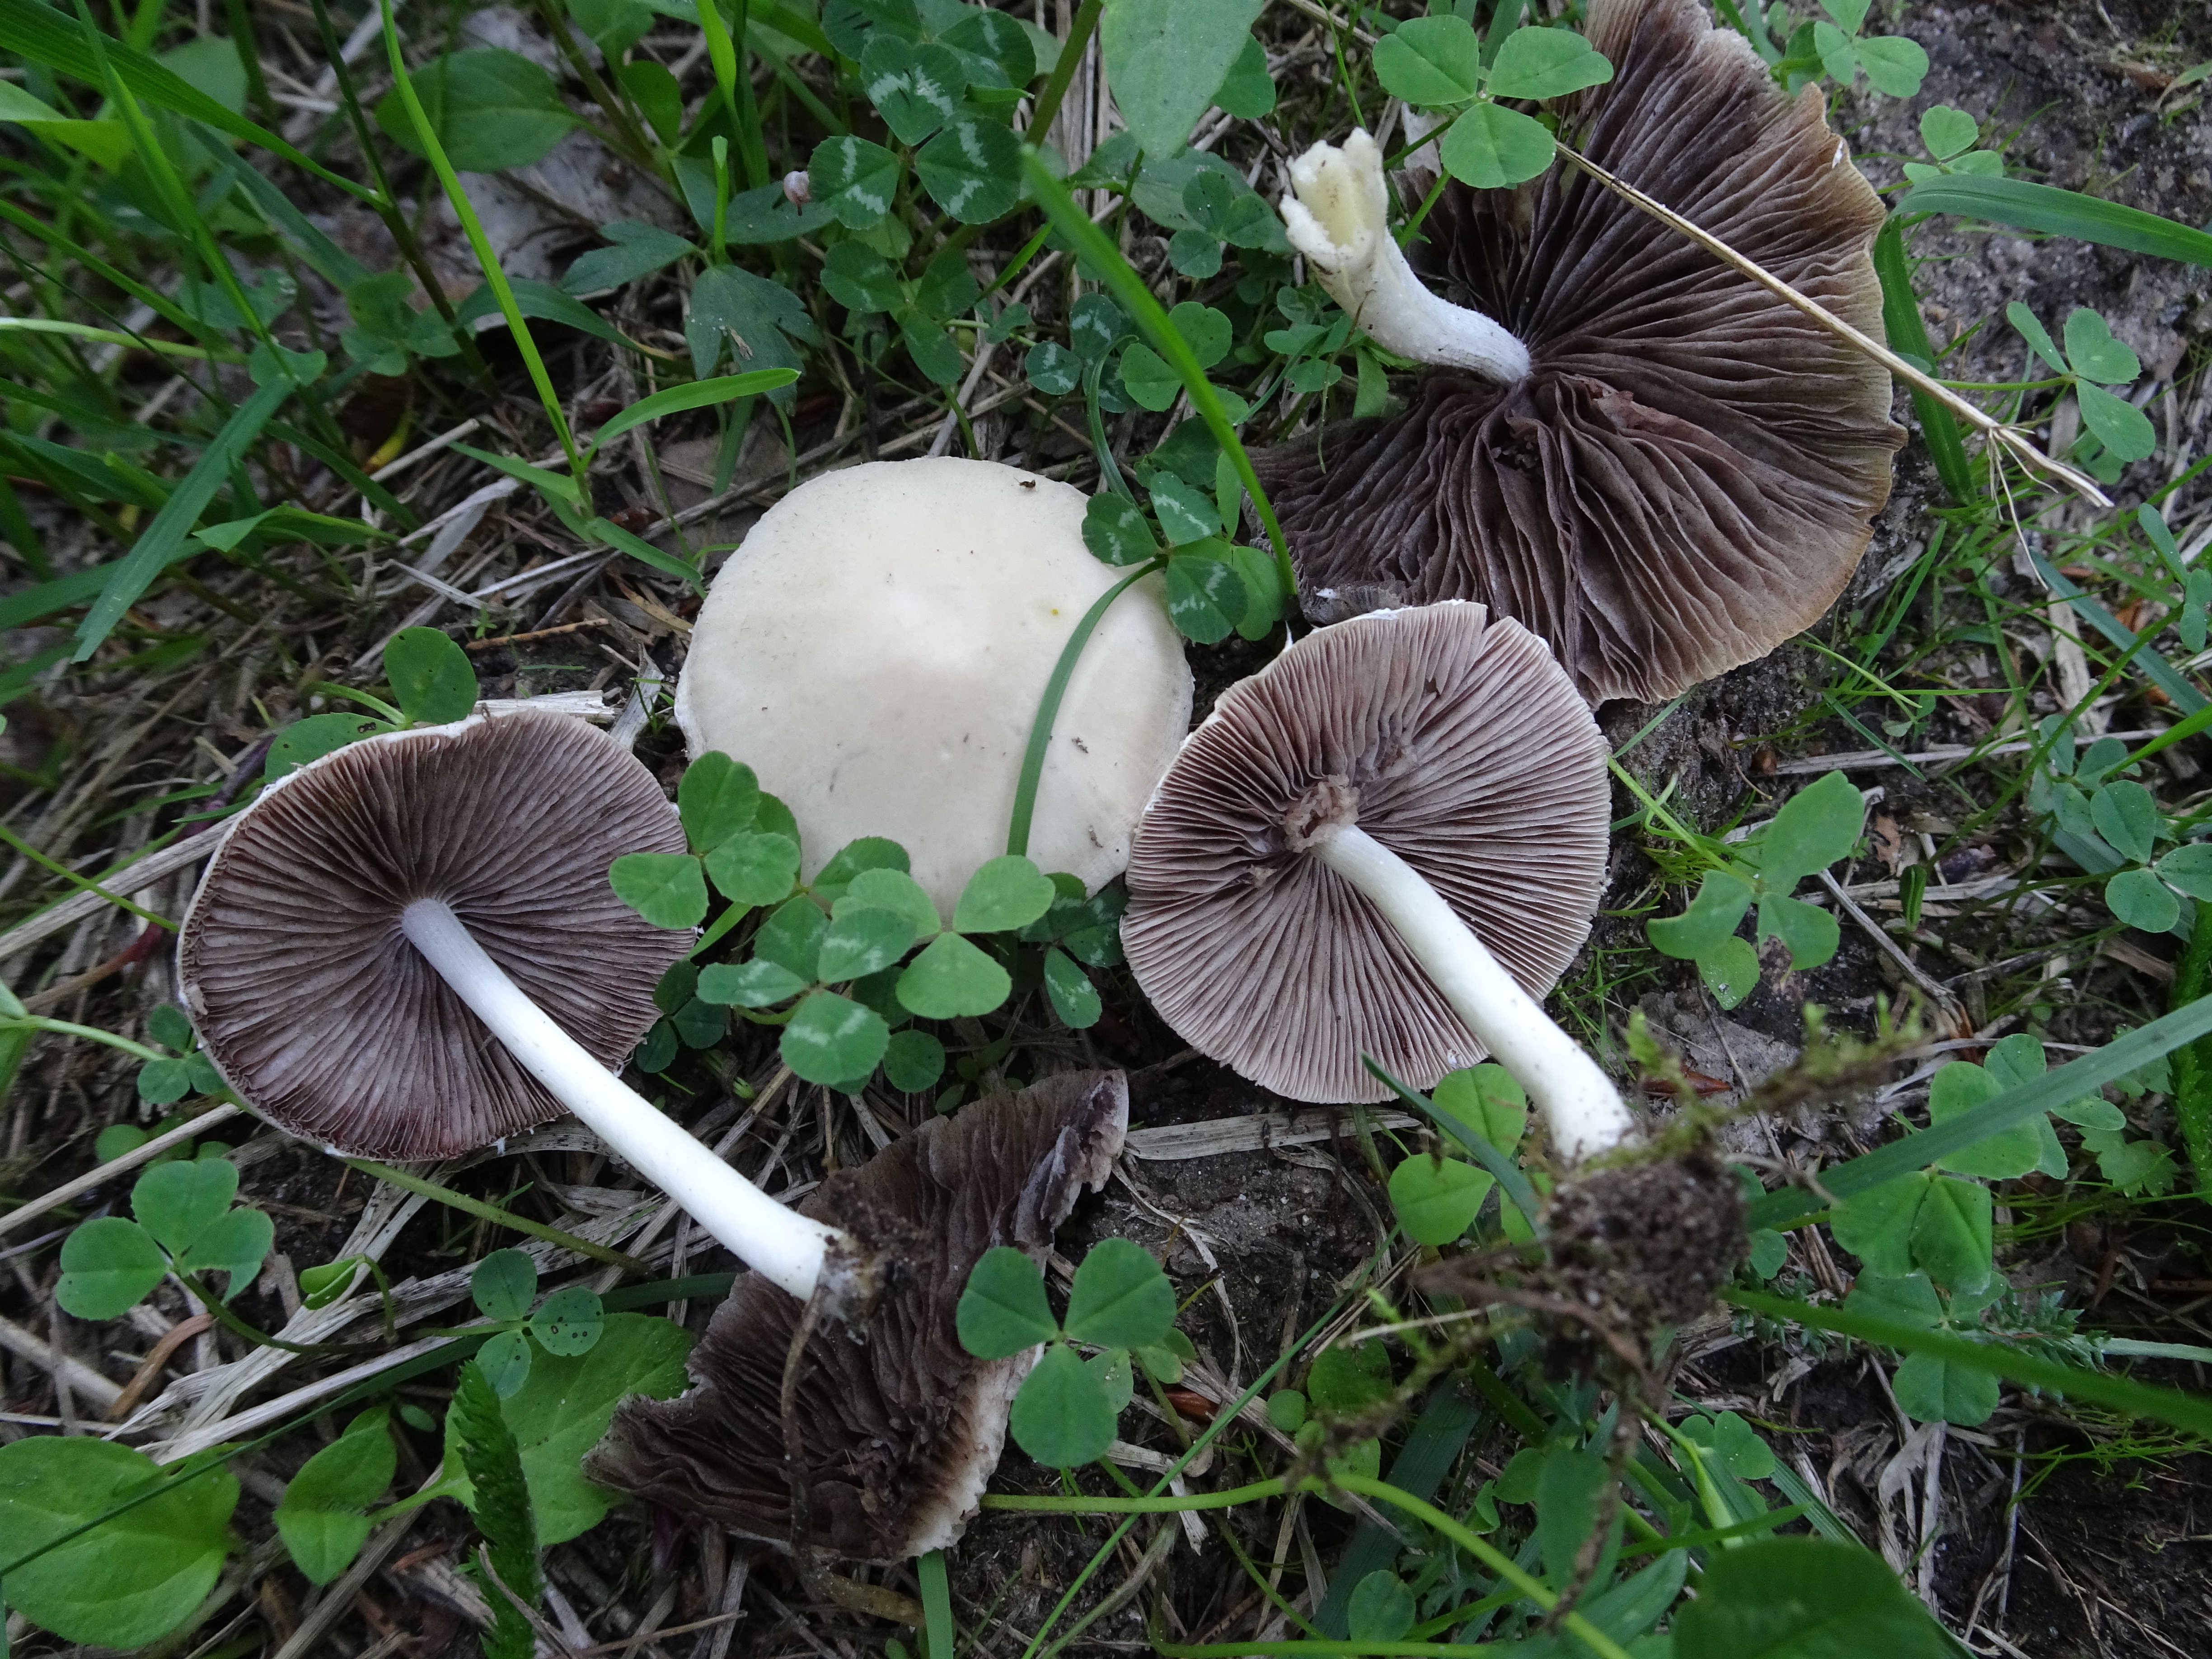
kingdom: Fungi
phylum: Basidiomycota
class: Agaricomycetes
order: Agaricales
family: Psathyrellaceae
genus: Candolleomyces
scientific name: Candolleomyces candolleanus
